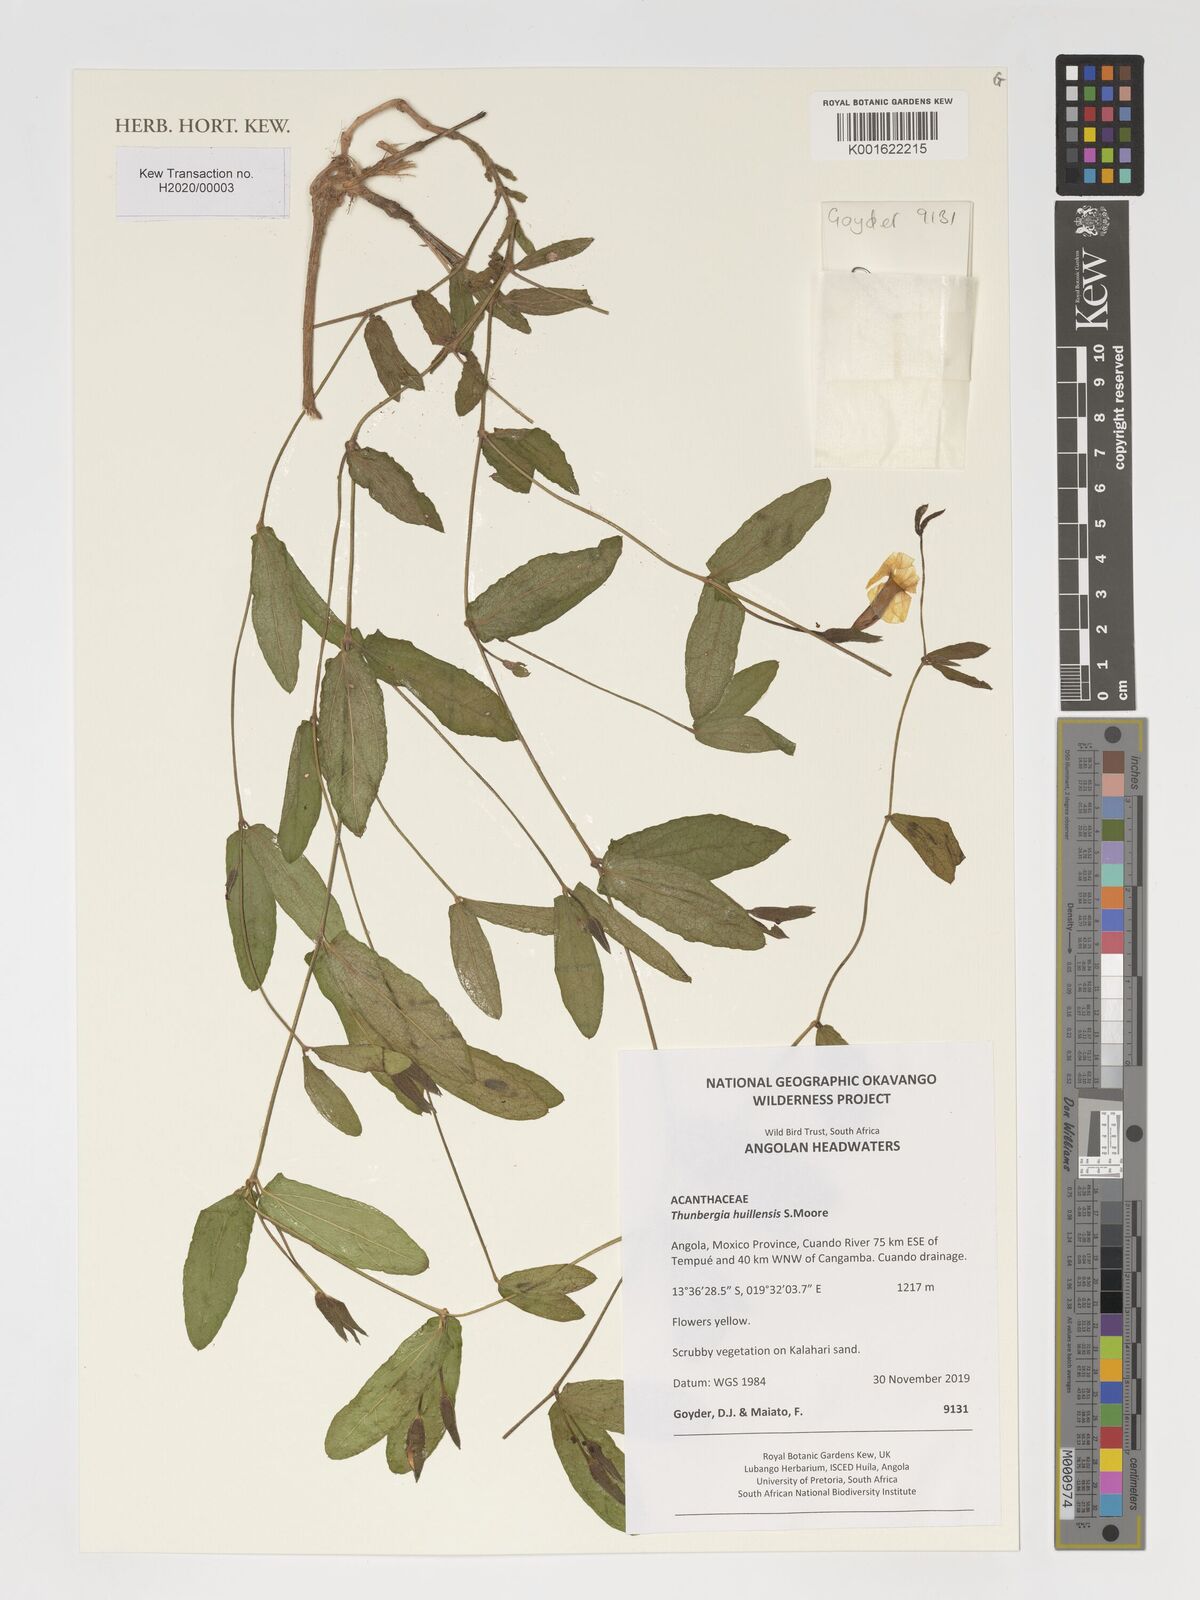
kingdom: Plantae
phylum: Tracheophyta
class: Magnoliopsida
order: Lamiales
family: Acanthaceae
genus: Thunbergia
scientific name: Thunbergia huillensis
